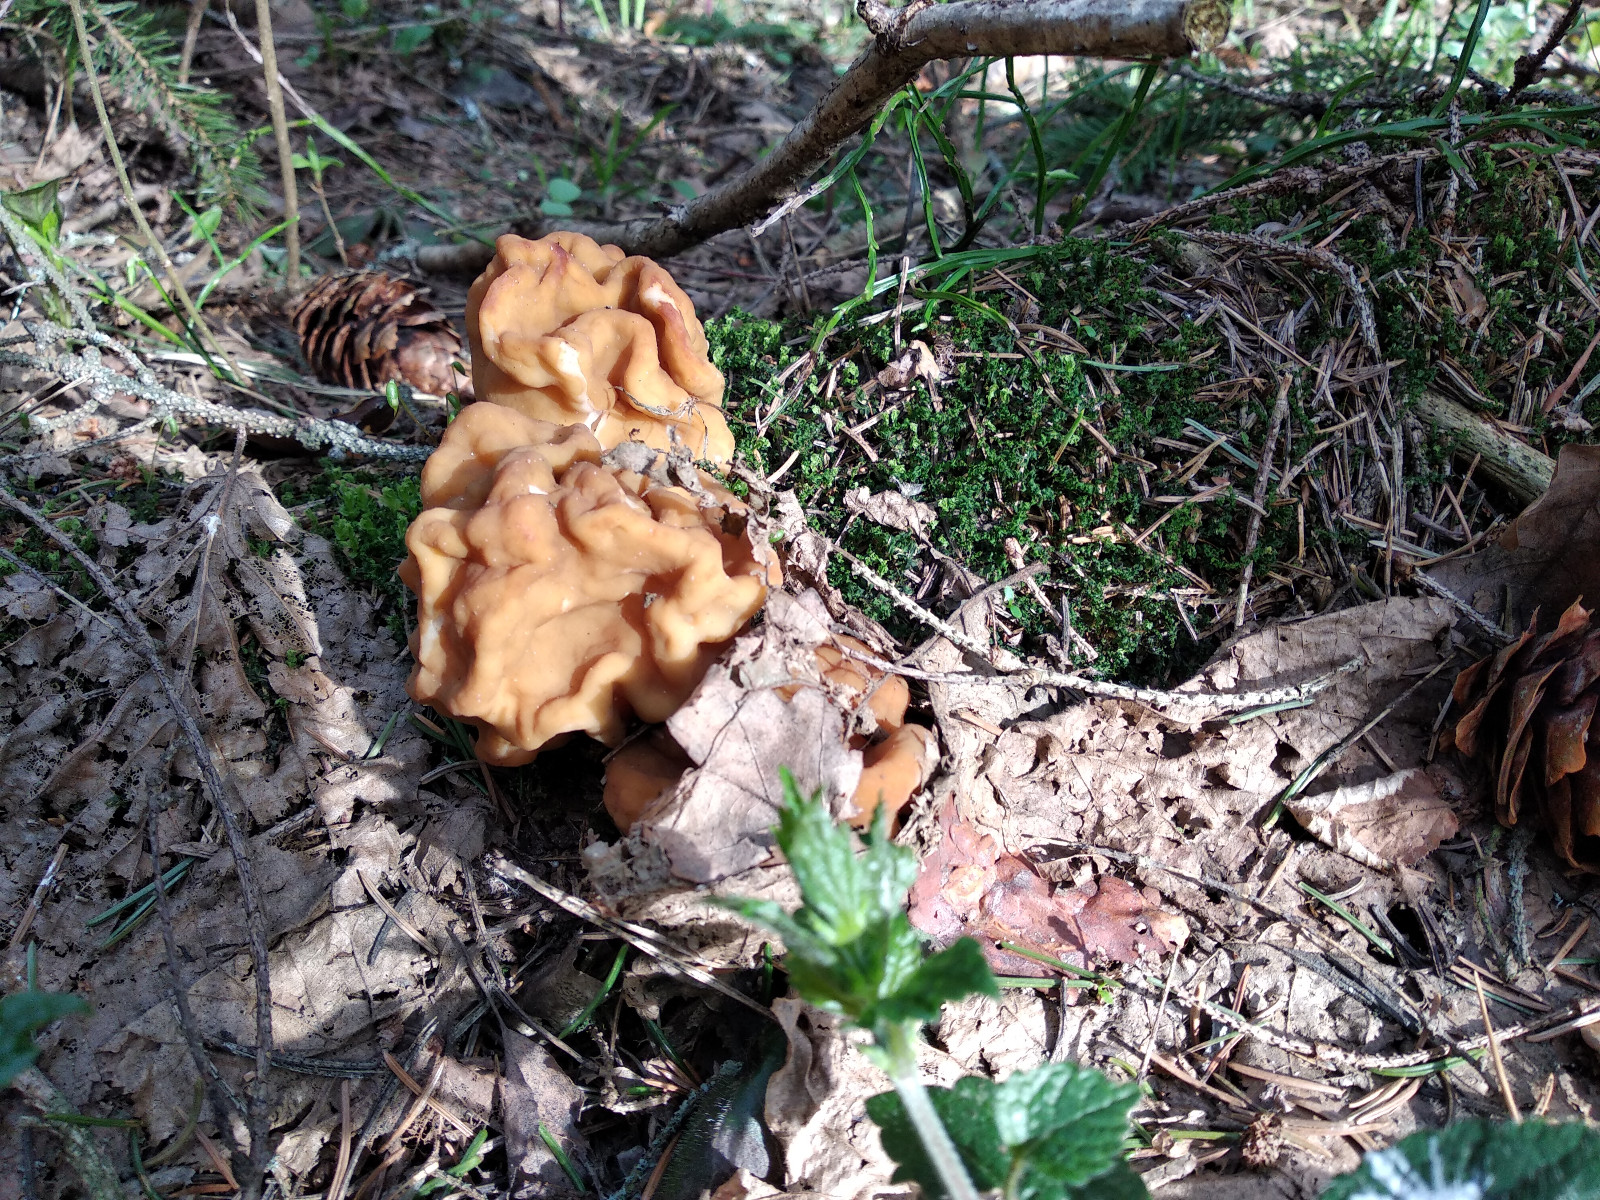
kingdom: Fungi
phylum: Ascomycota
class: Pezizomycetes
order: Pezizales
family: Discinaceae
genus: Gyromitra
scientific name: Gyromitra gigas
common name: kæmpe-stenmorkel
